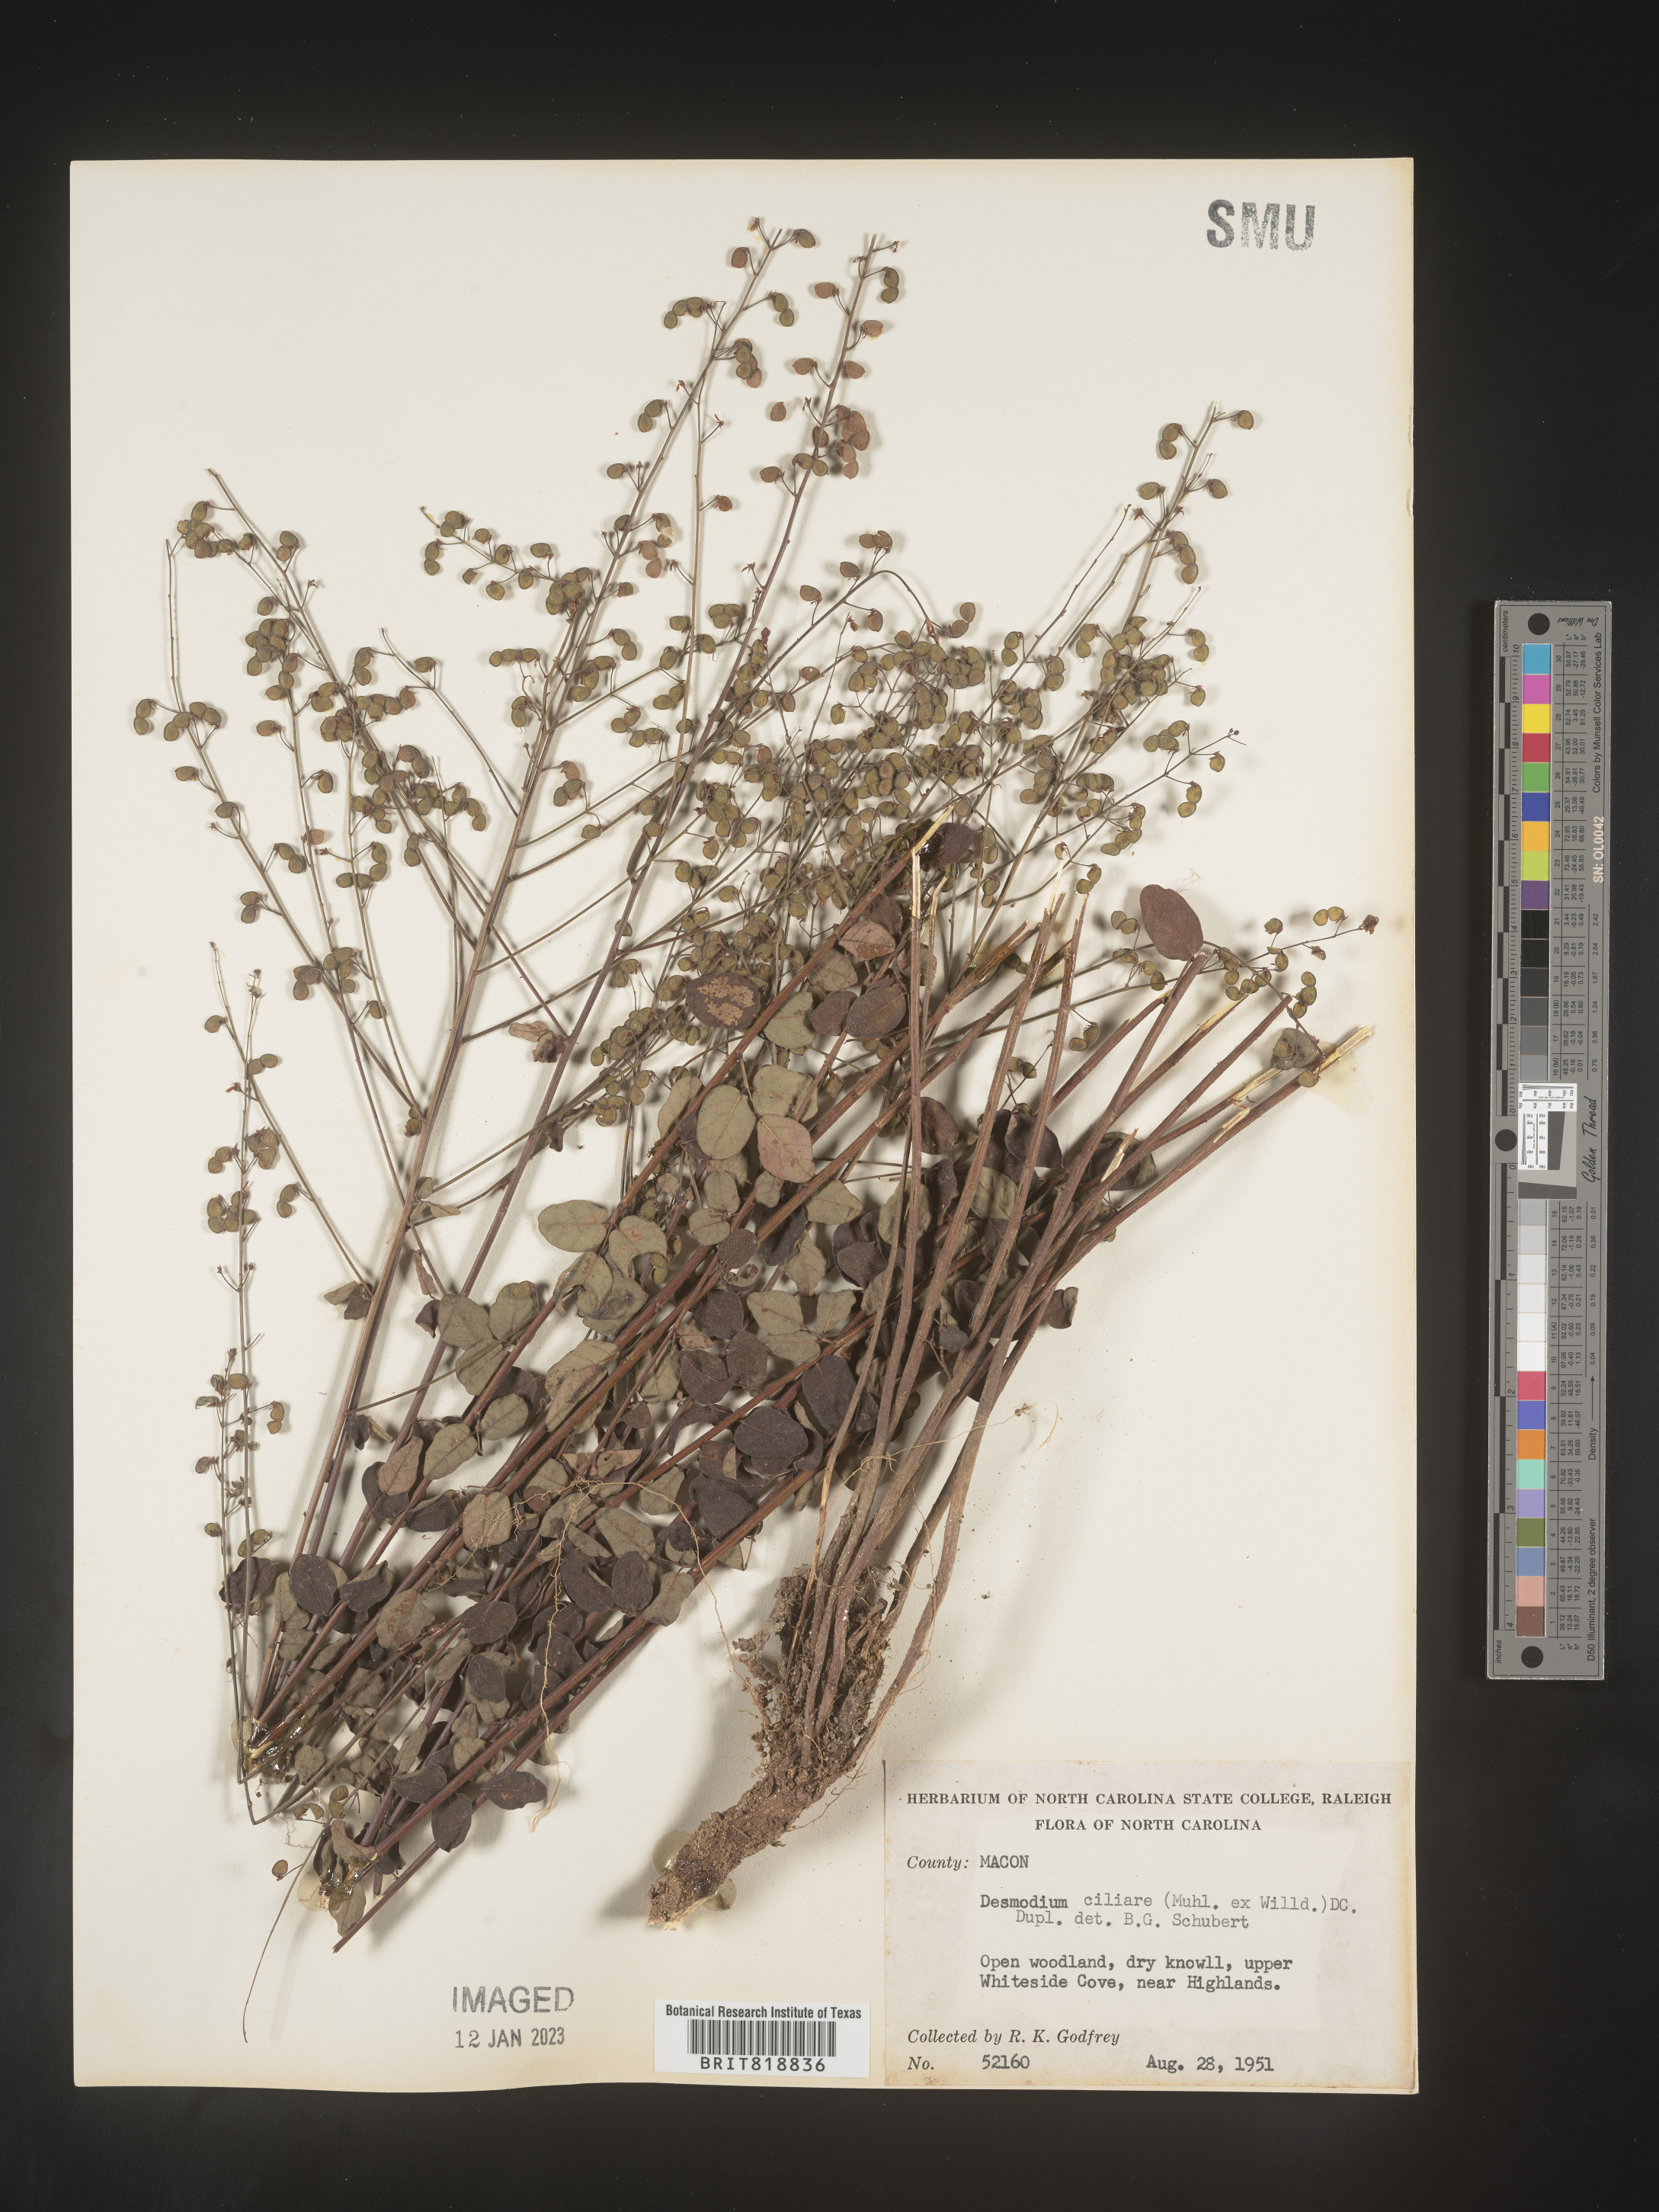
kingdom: Plantae
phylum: Tracheophyta
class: Magnoliopsida
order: Fabales
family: Fabaceae
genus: Desmodium
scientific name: Desmodium ciliare
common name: Hairy small-leaf ticktrefoil
